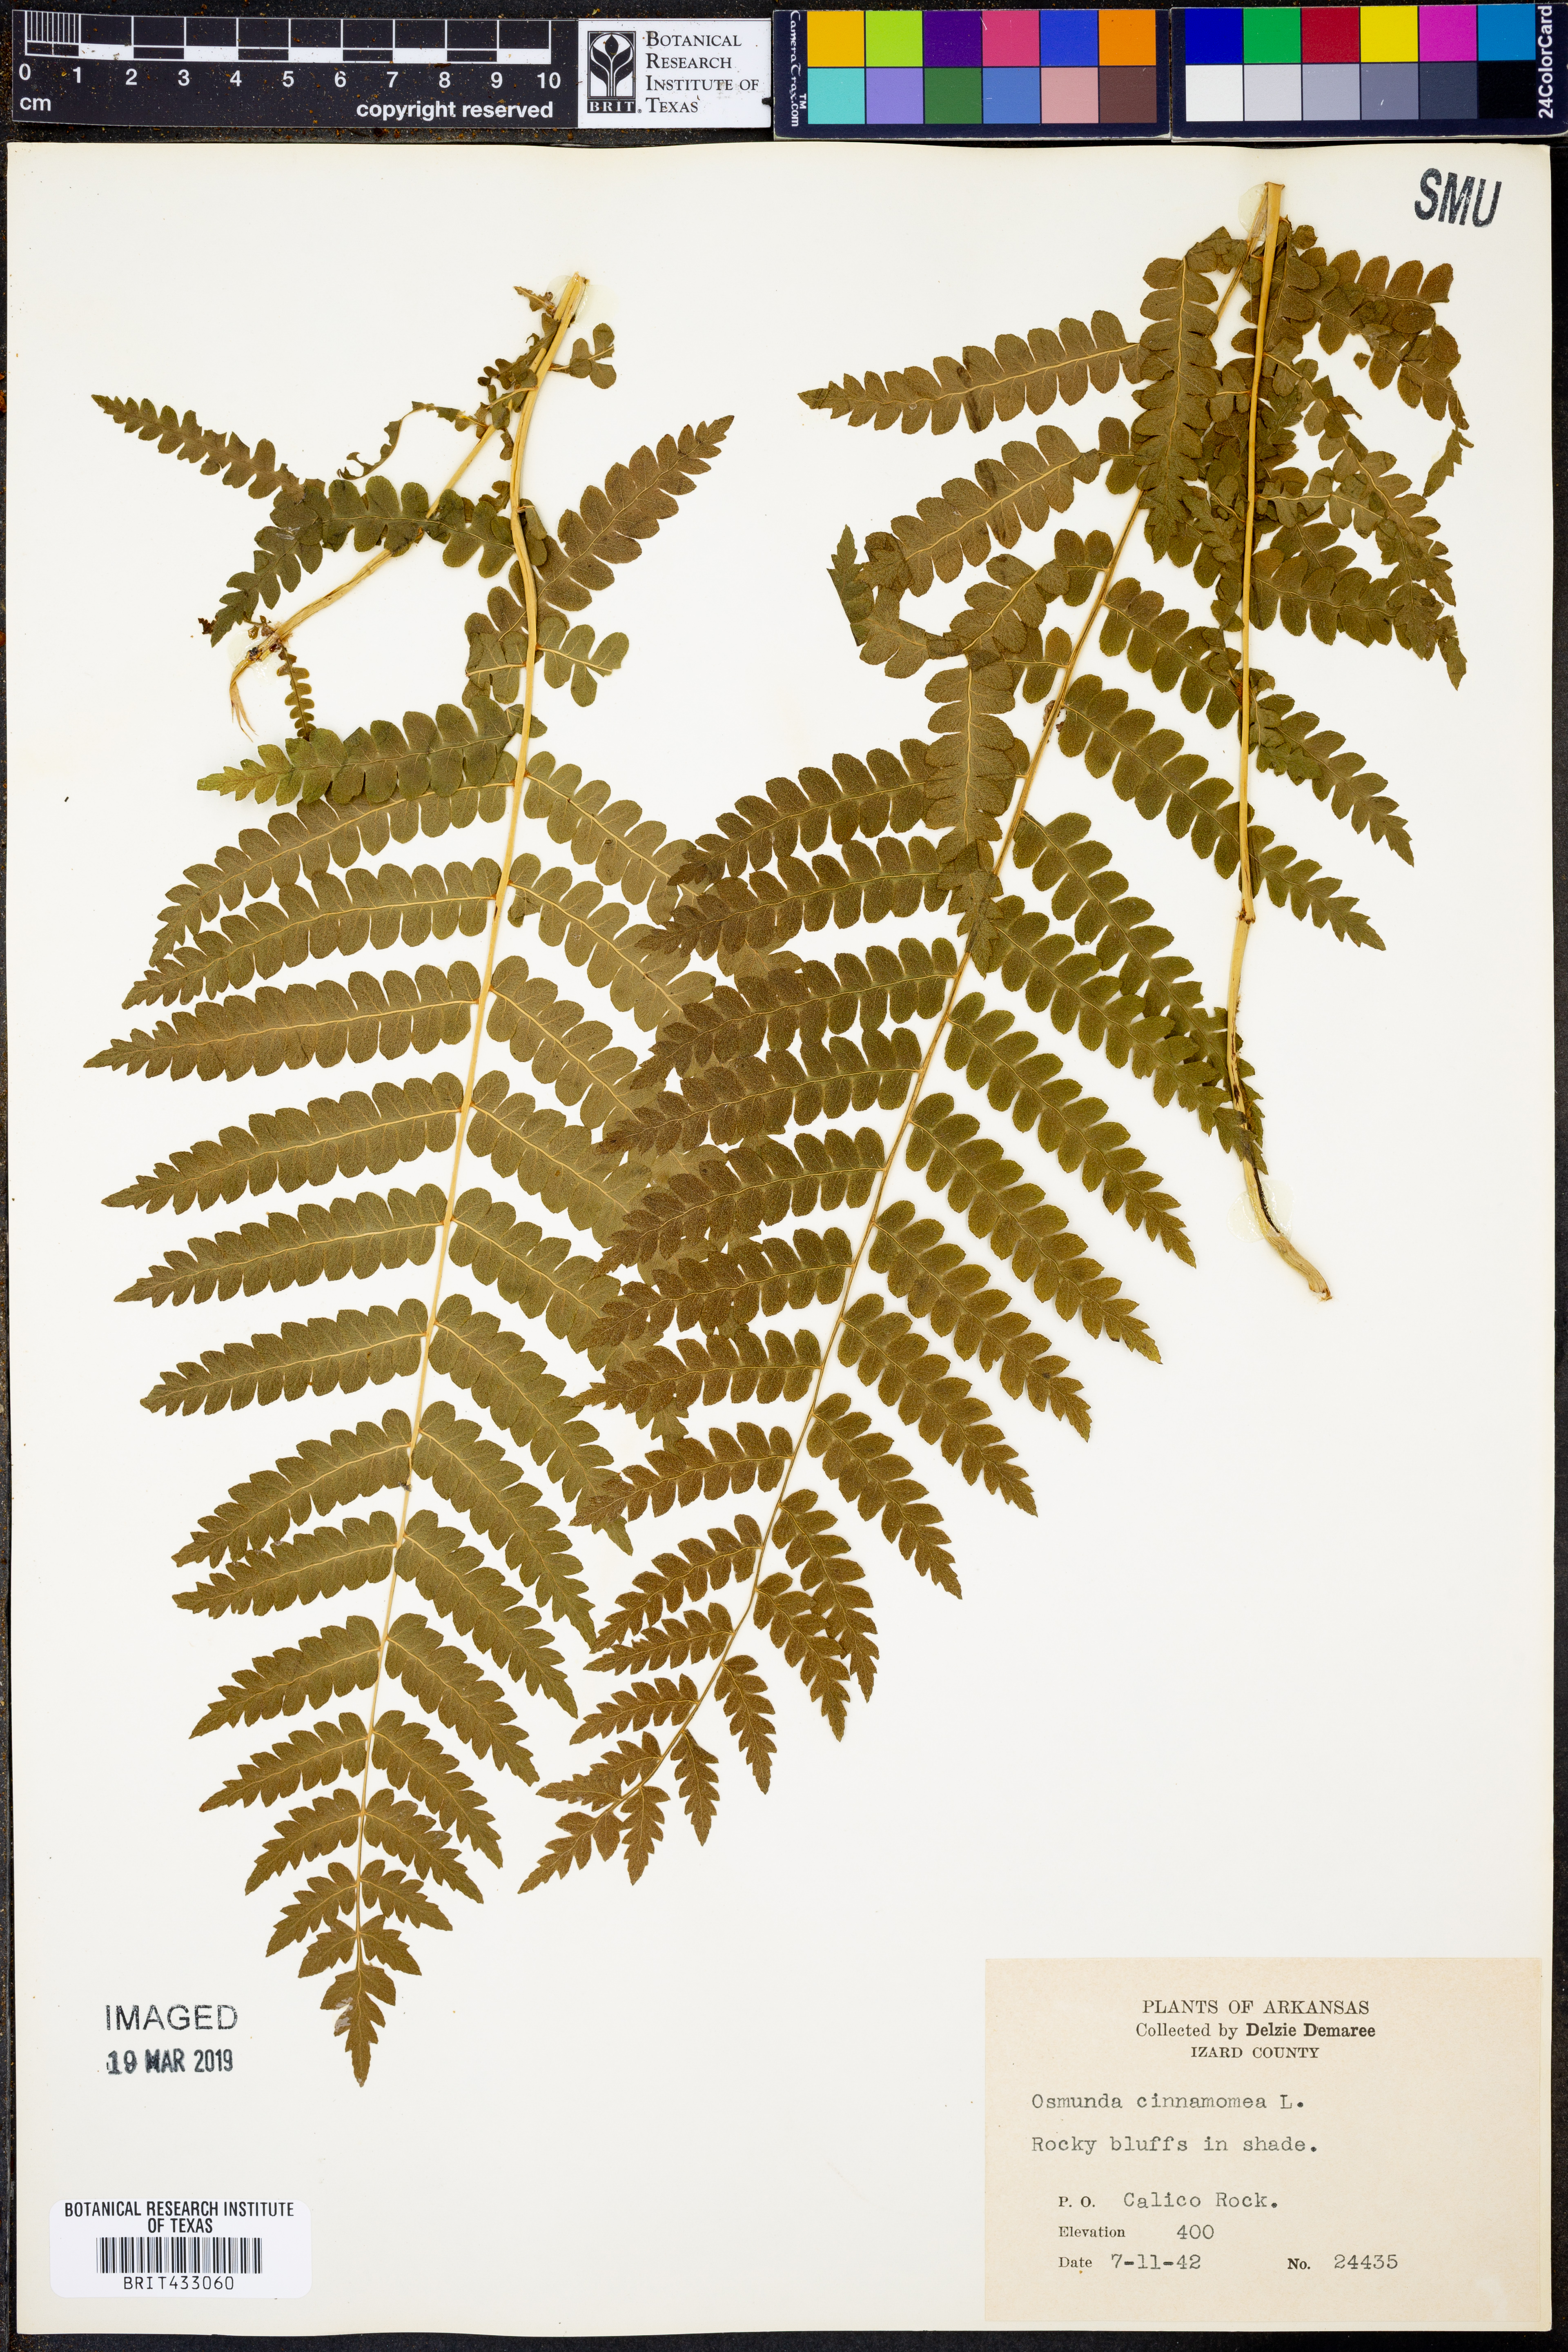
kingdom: Plantae
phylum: Tracheophyta
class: Polypodiopsida
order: Osmundales
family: Osmundaceae
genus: Osmundastrum
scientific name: Osmundastrum cinnamomeum
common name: Cinnamon fern
